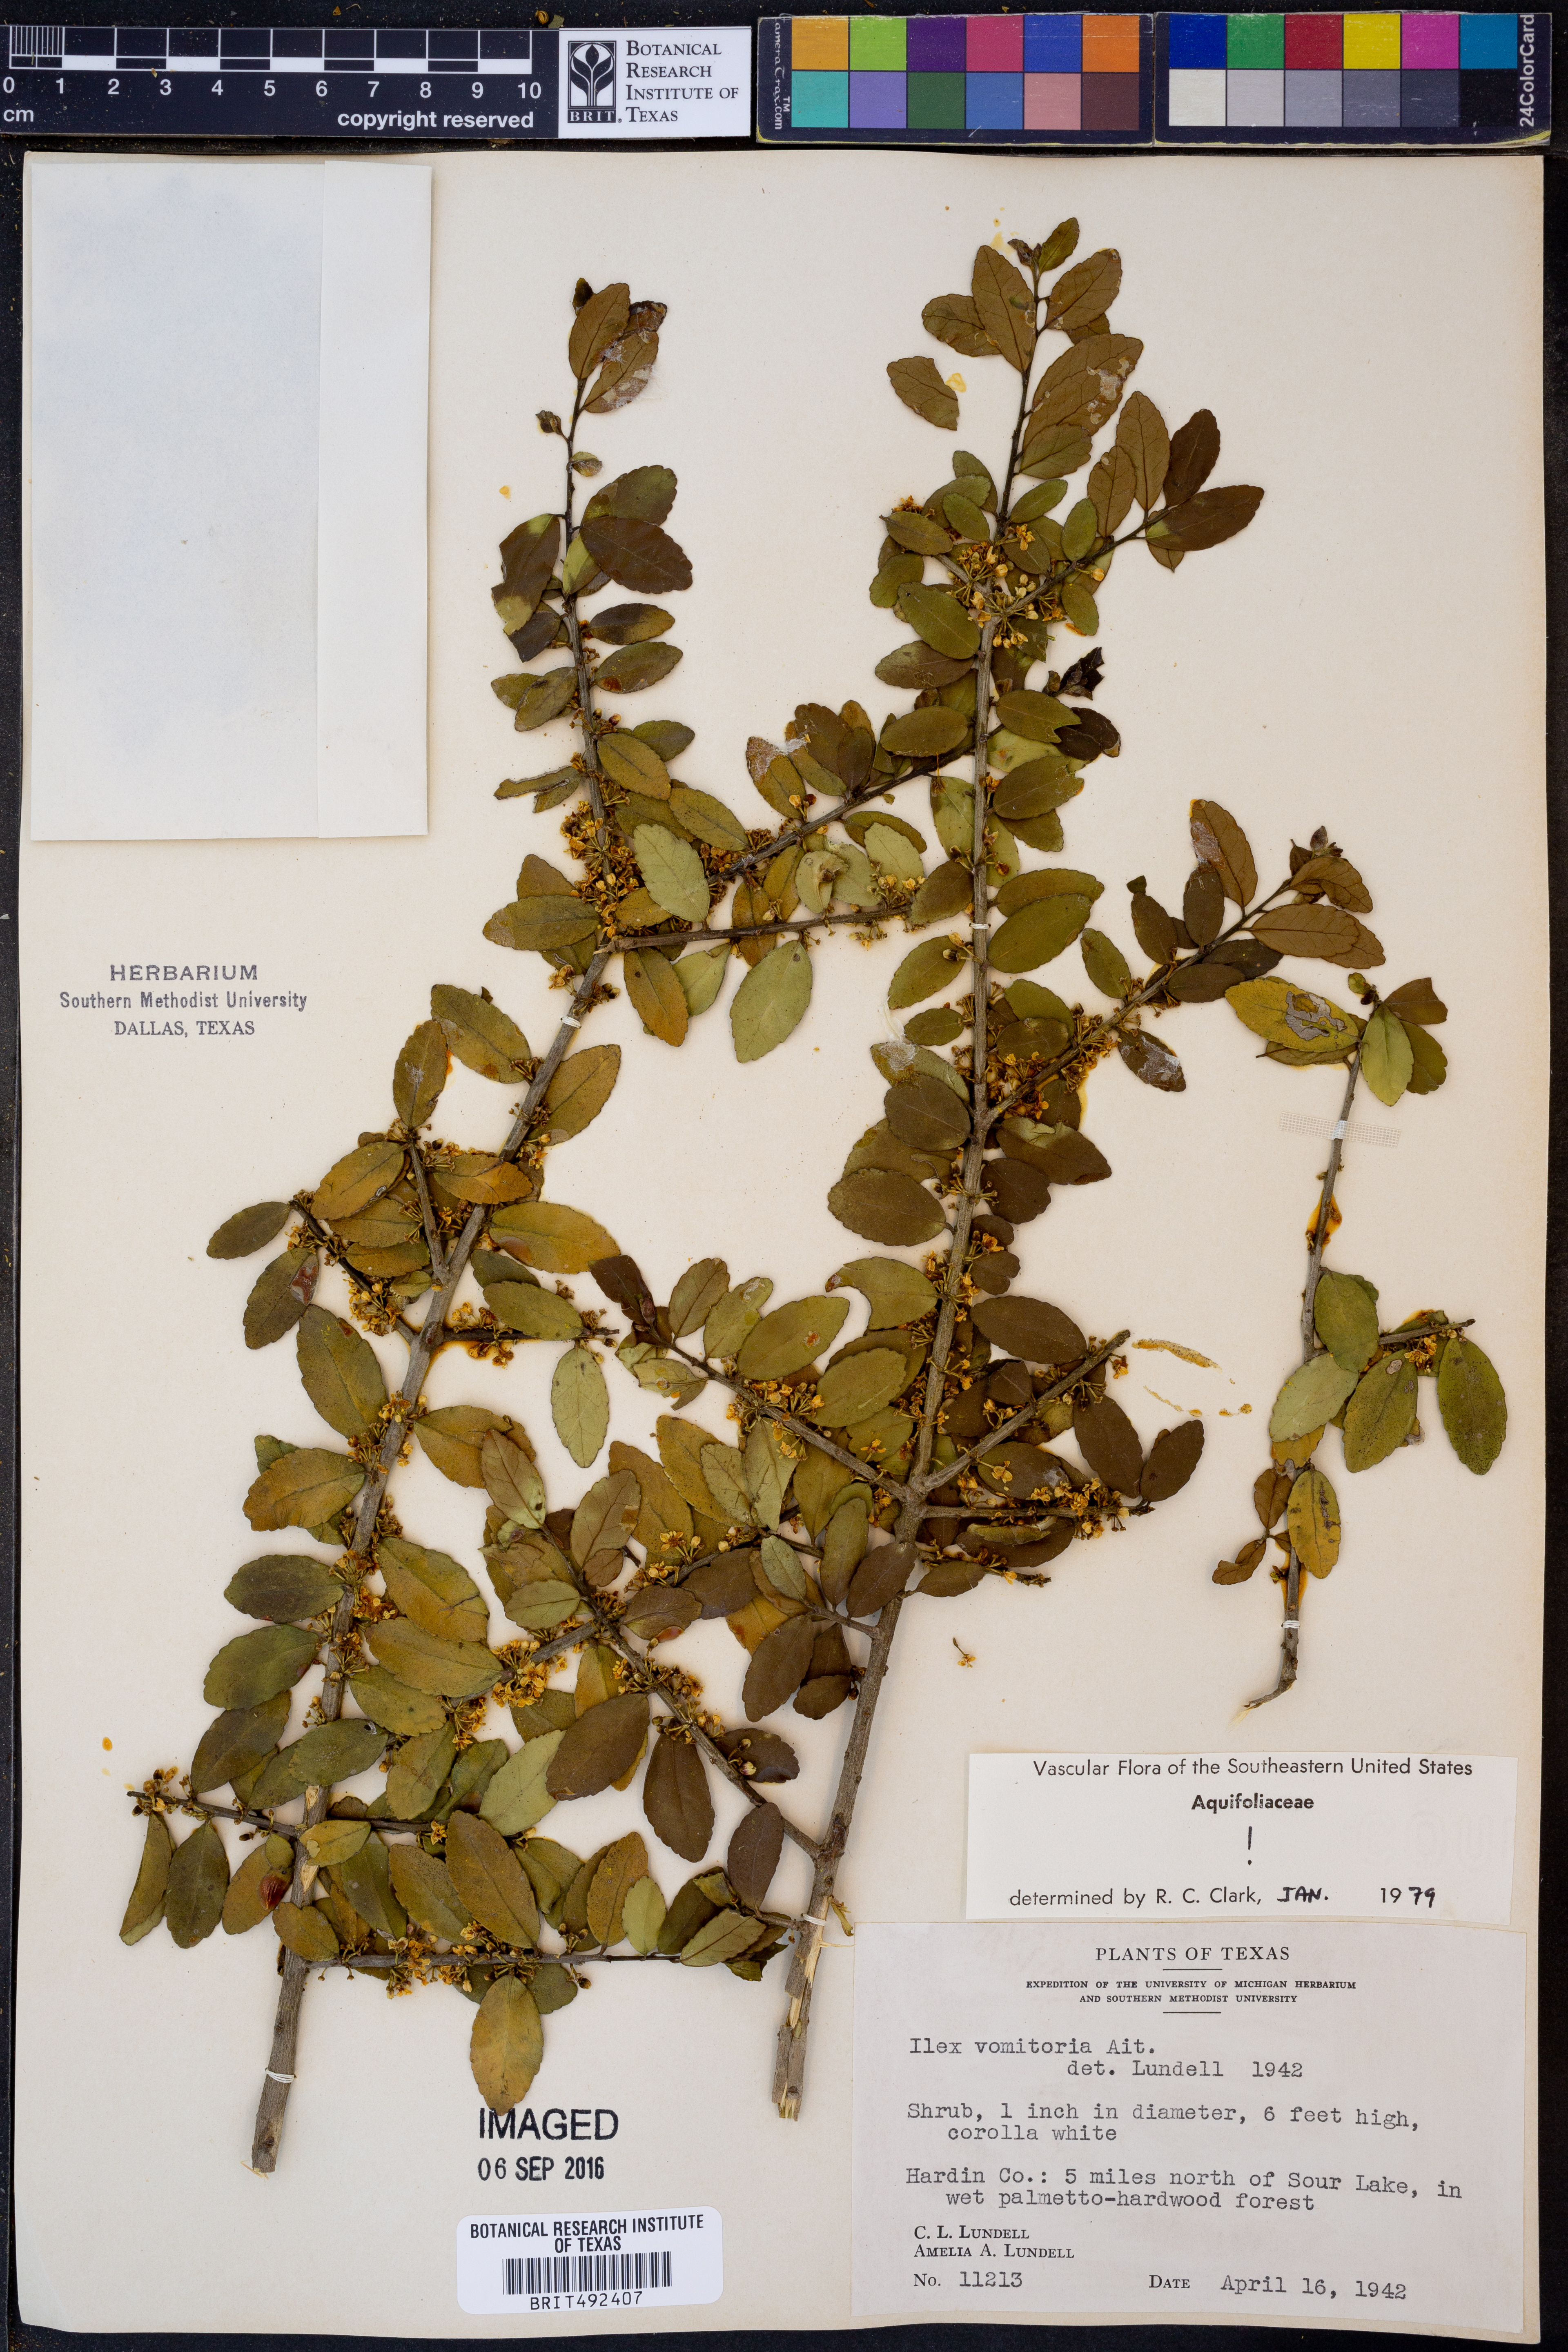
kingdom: Plantae
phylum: Tracheophyta
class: Magnoliopsida
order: Aquifoliales
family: Aquifoliaceae
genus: Ilex
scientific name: Ilex vomitoria
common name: Yaupon holly
